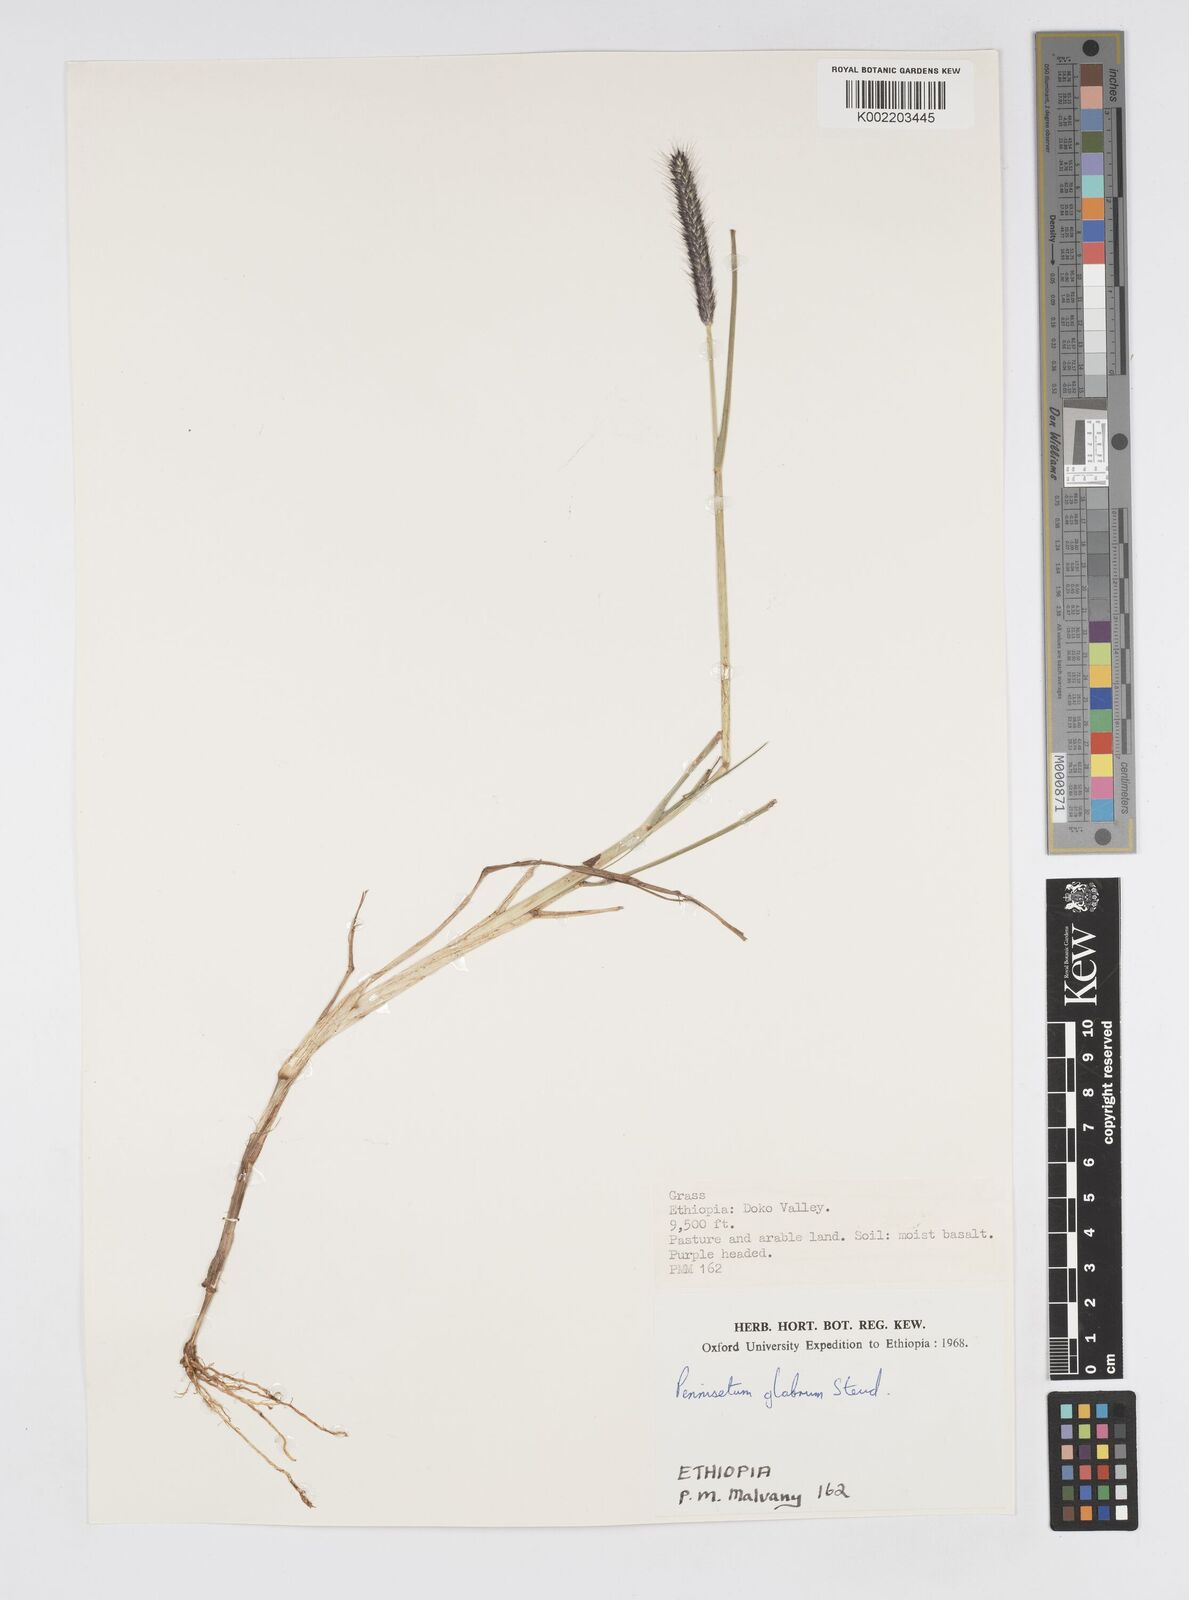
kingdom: Plantae
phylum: Tracheophyta
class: Liliopsida
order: Poales
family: Poaceae
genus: Cenchrus
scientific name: Cenchrus geniculatus
